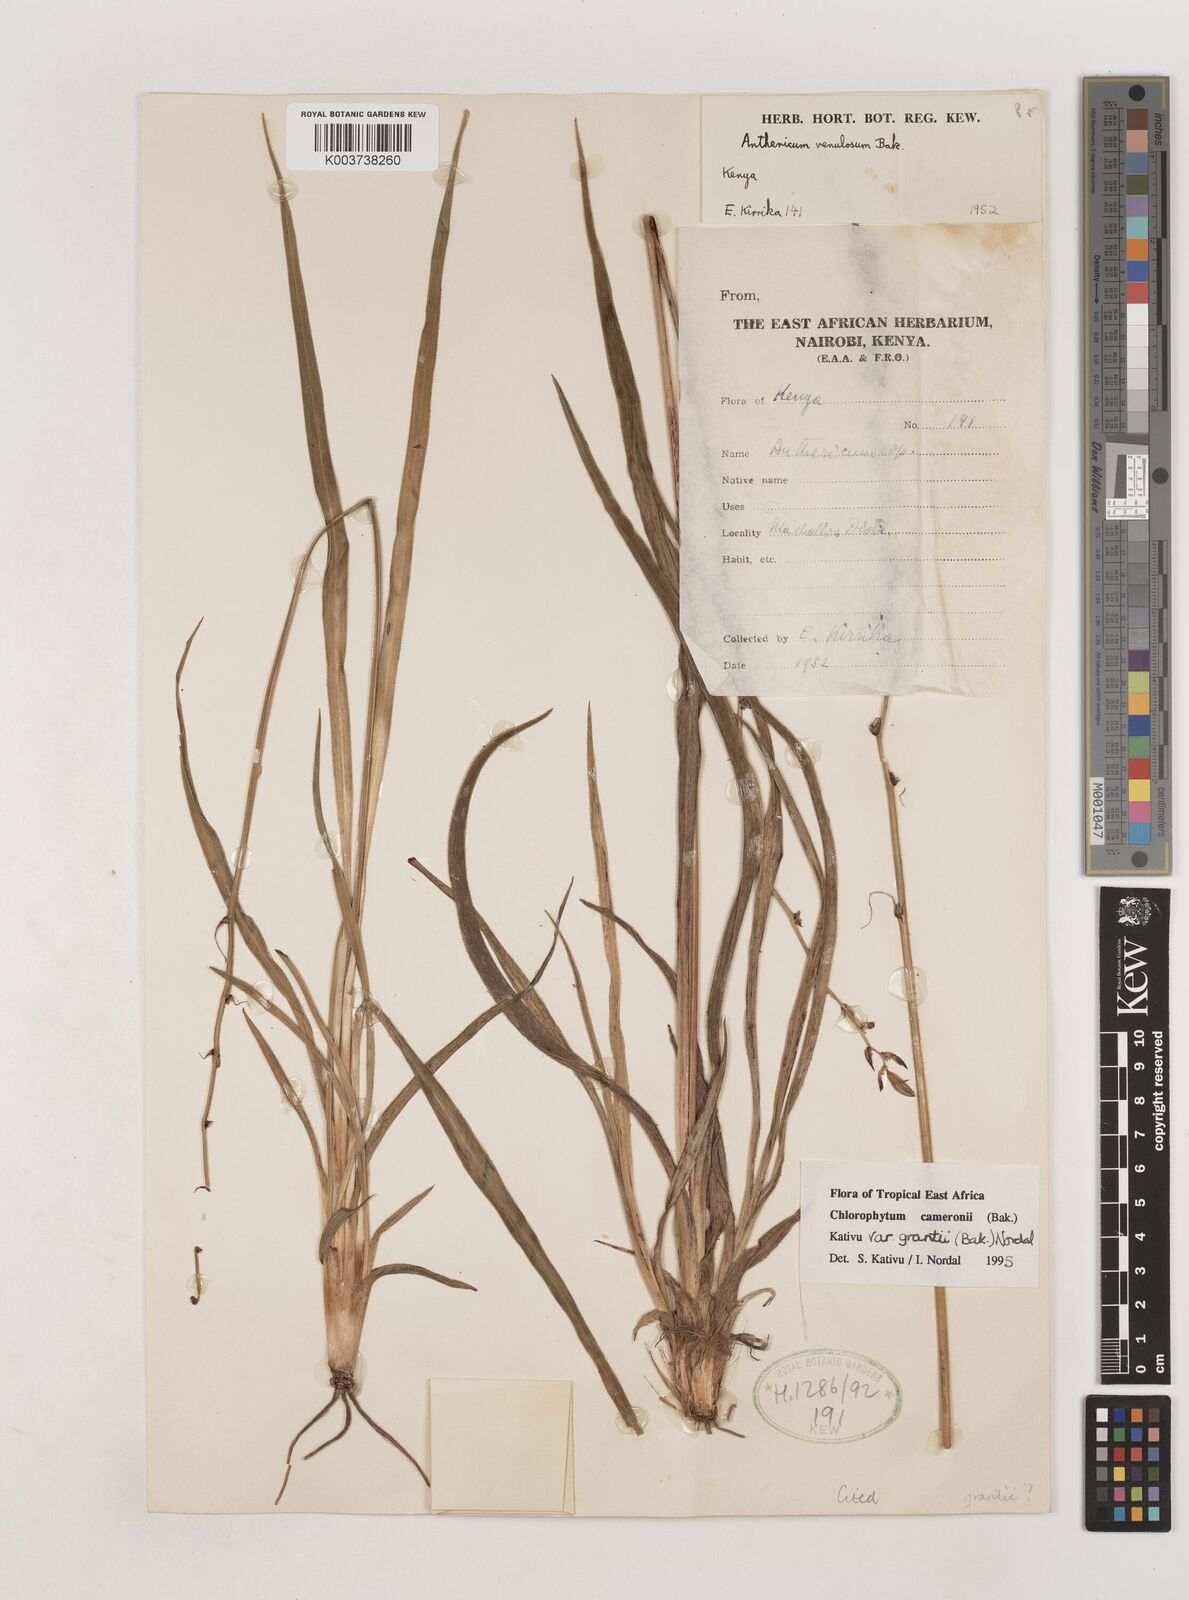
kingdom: Plantae
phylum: Tracheophyta
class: Liliopsida
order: Asparagales
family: Asparagaceae
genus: Chlorophytum
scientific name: Chlorophytum cameronii
